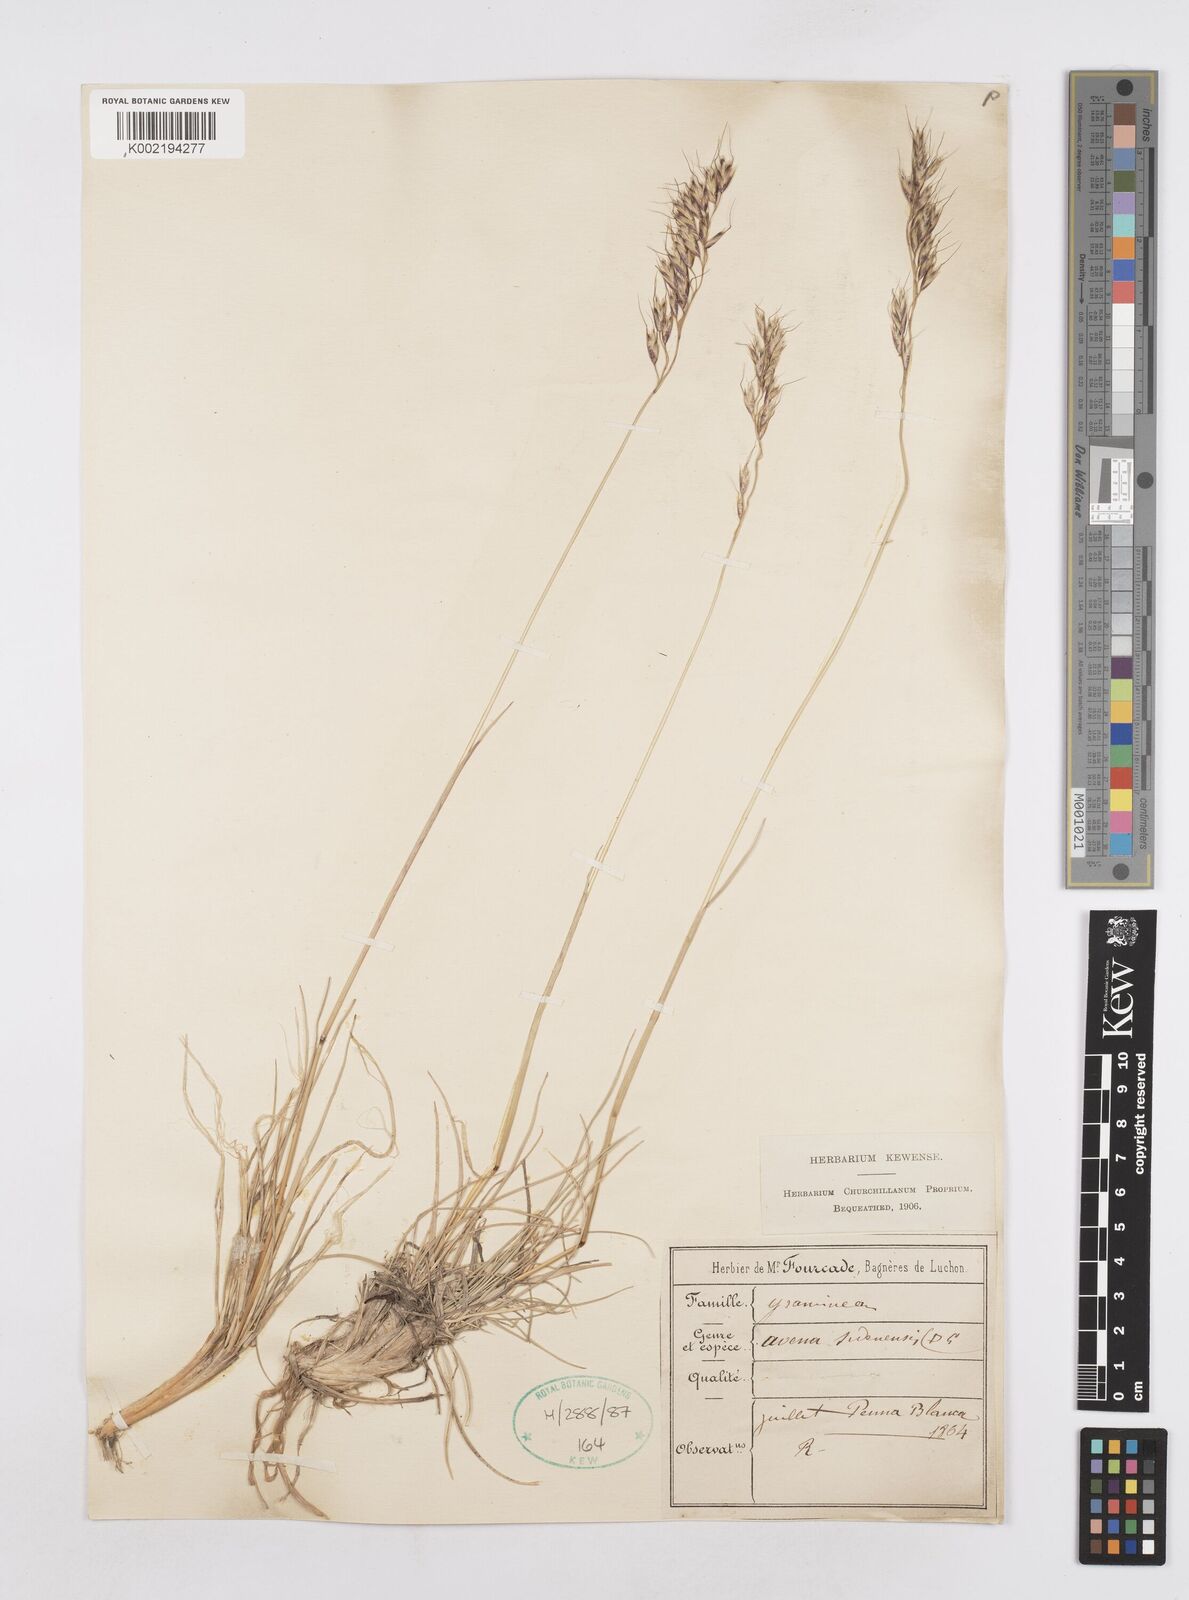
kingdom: Plantae
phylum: Tracheophyta
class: Liliopsida
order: Poales
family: Poaceae
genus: Helictotrichon
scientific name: Helictotrichon sedenense
